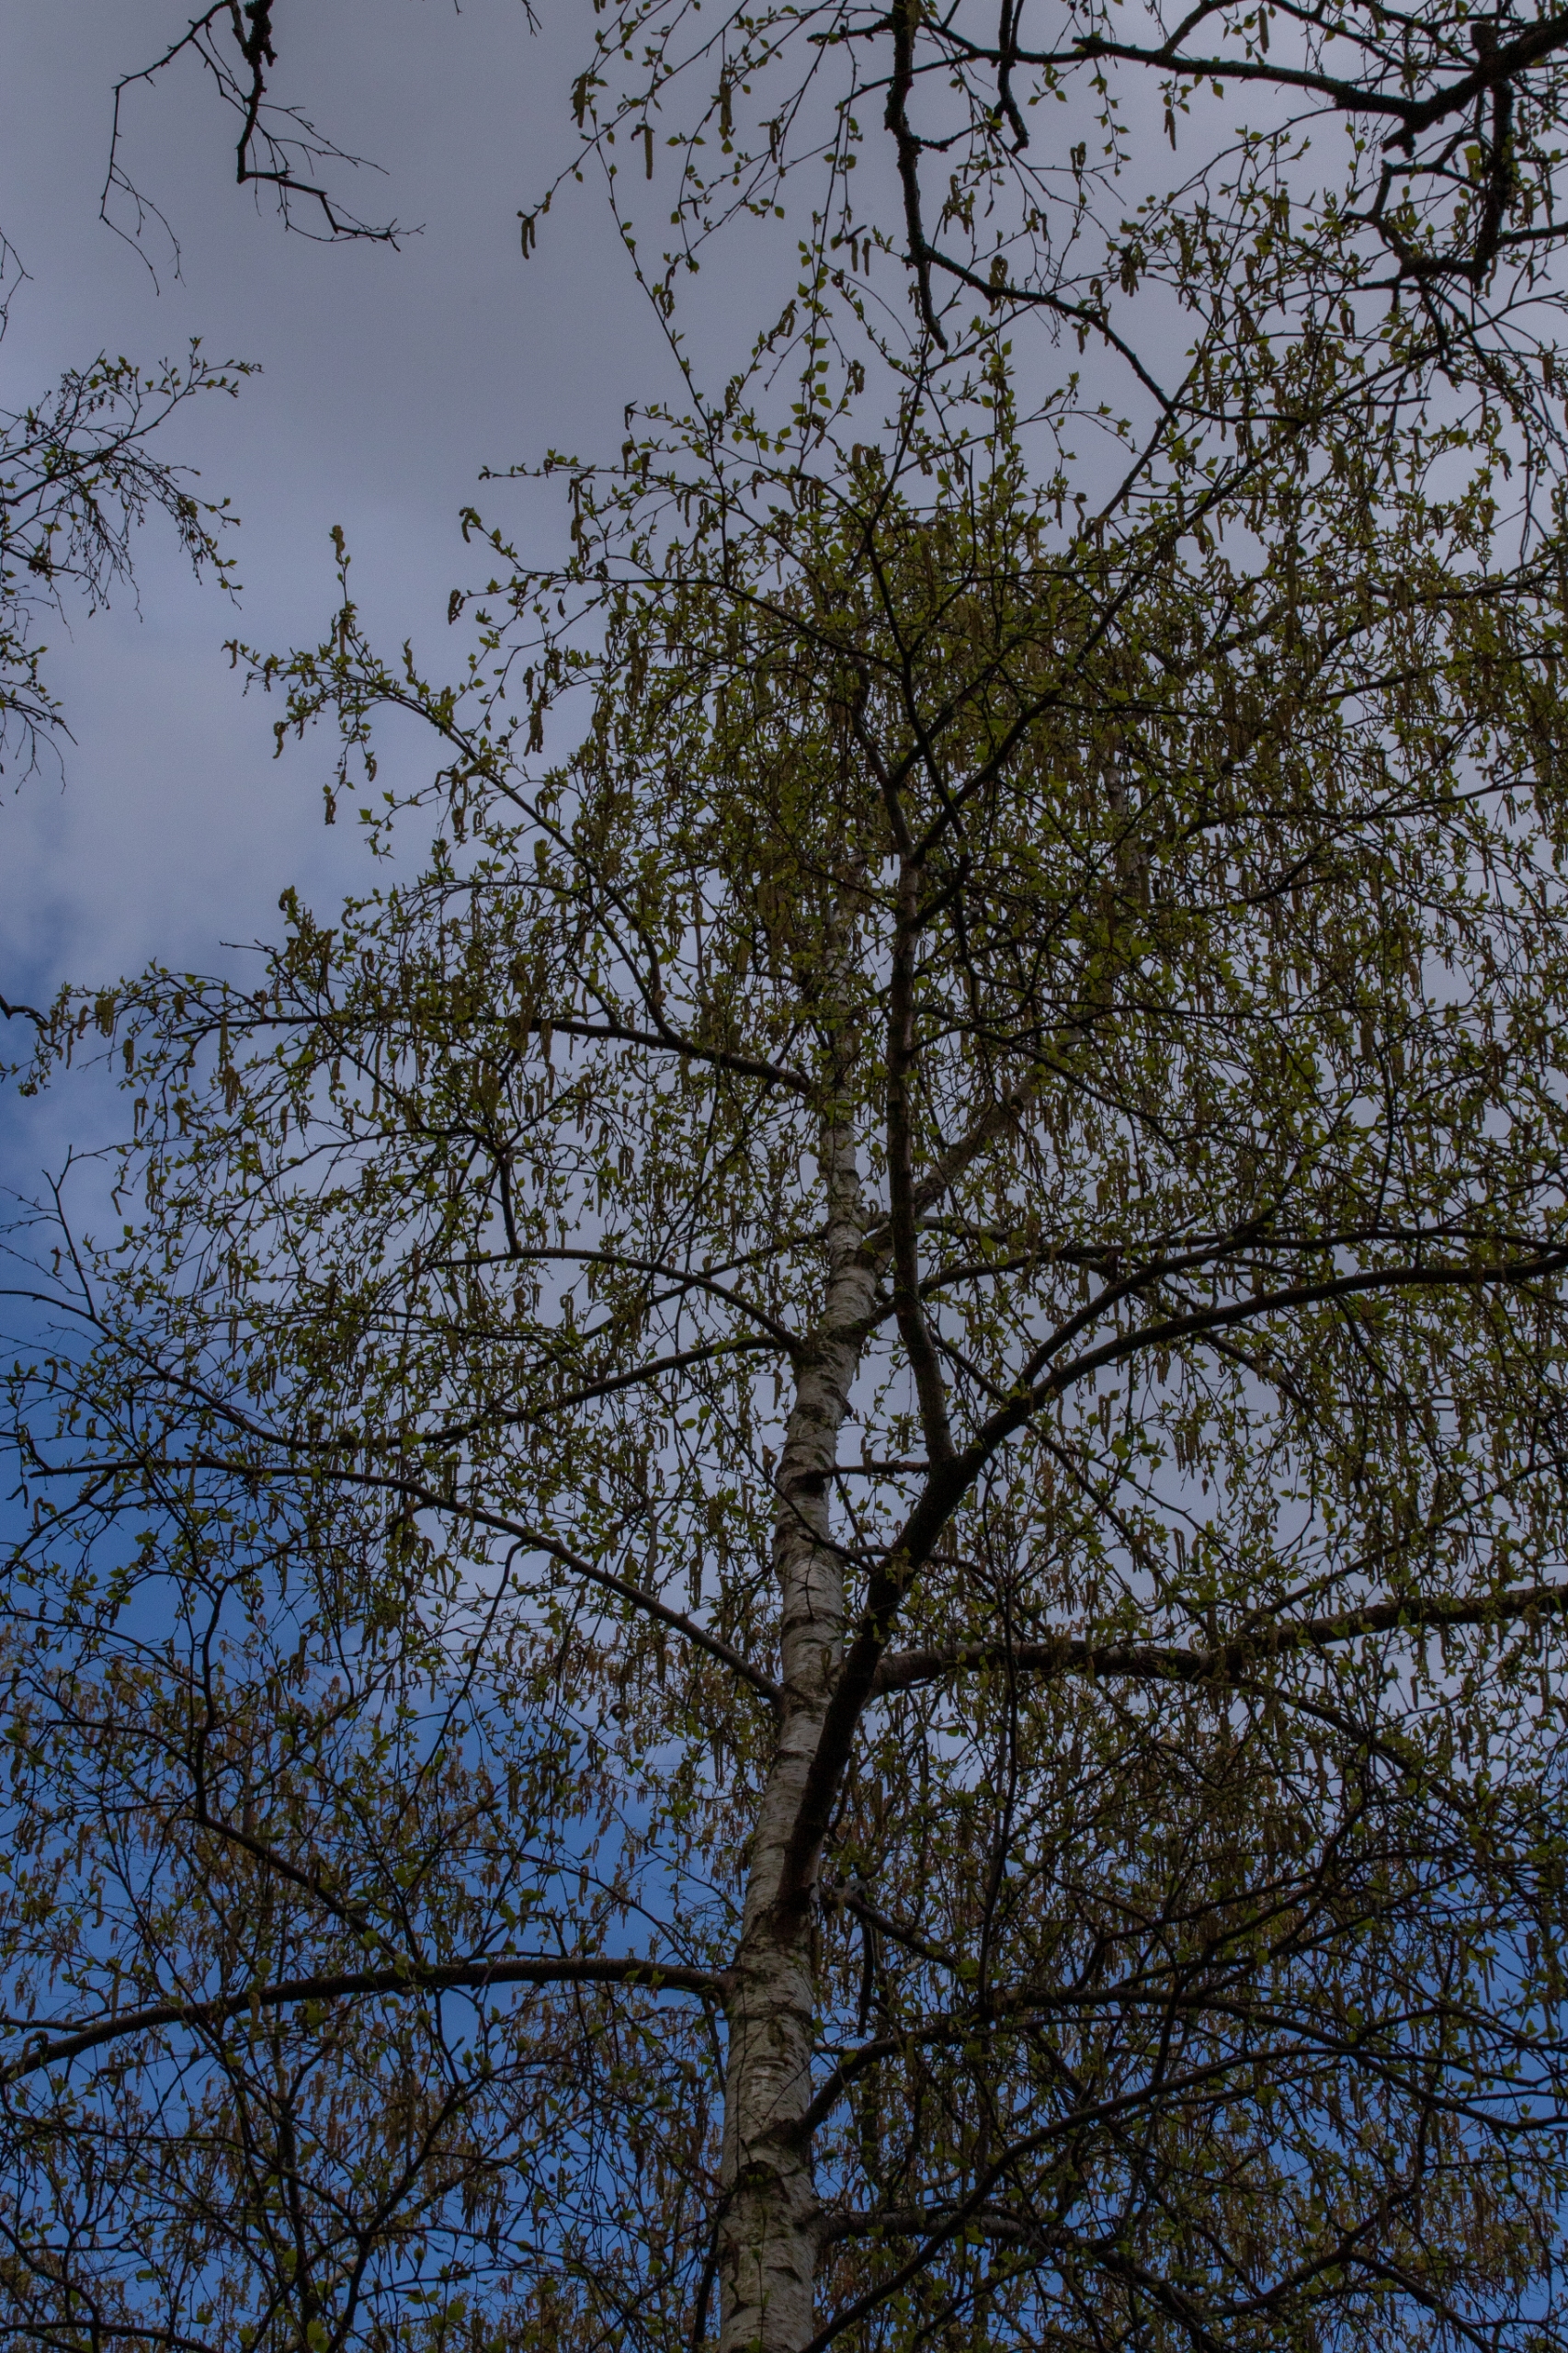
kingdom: Plantae
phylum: Tracheophyta
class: Magnoliopsida
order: Fagales
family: Betulaceae
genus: Betula
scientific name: Betula pubescens
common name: Dun-birk
